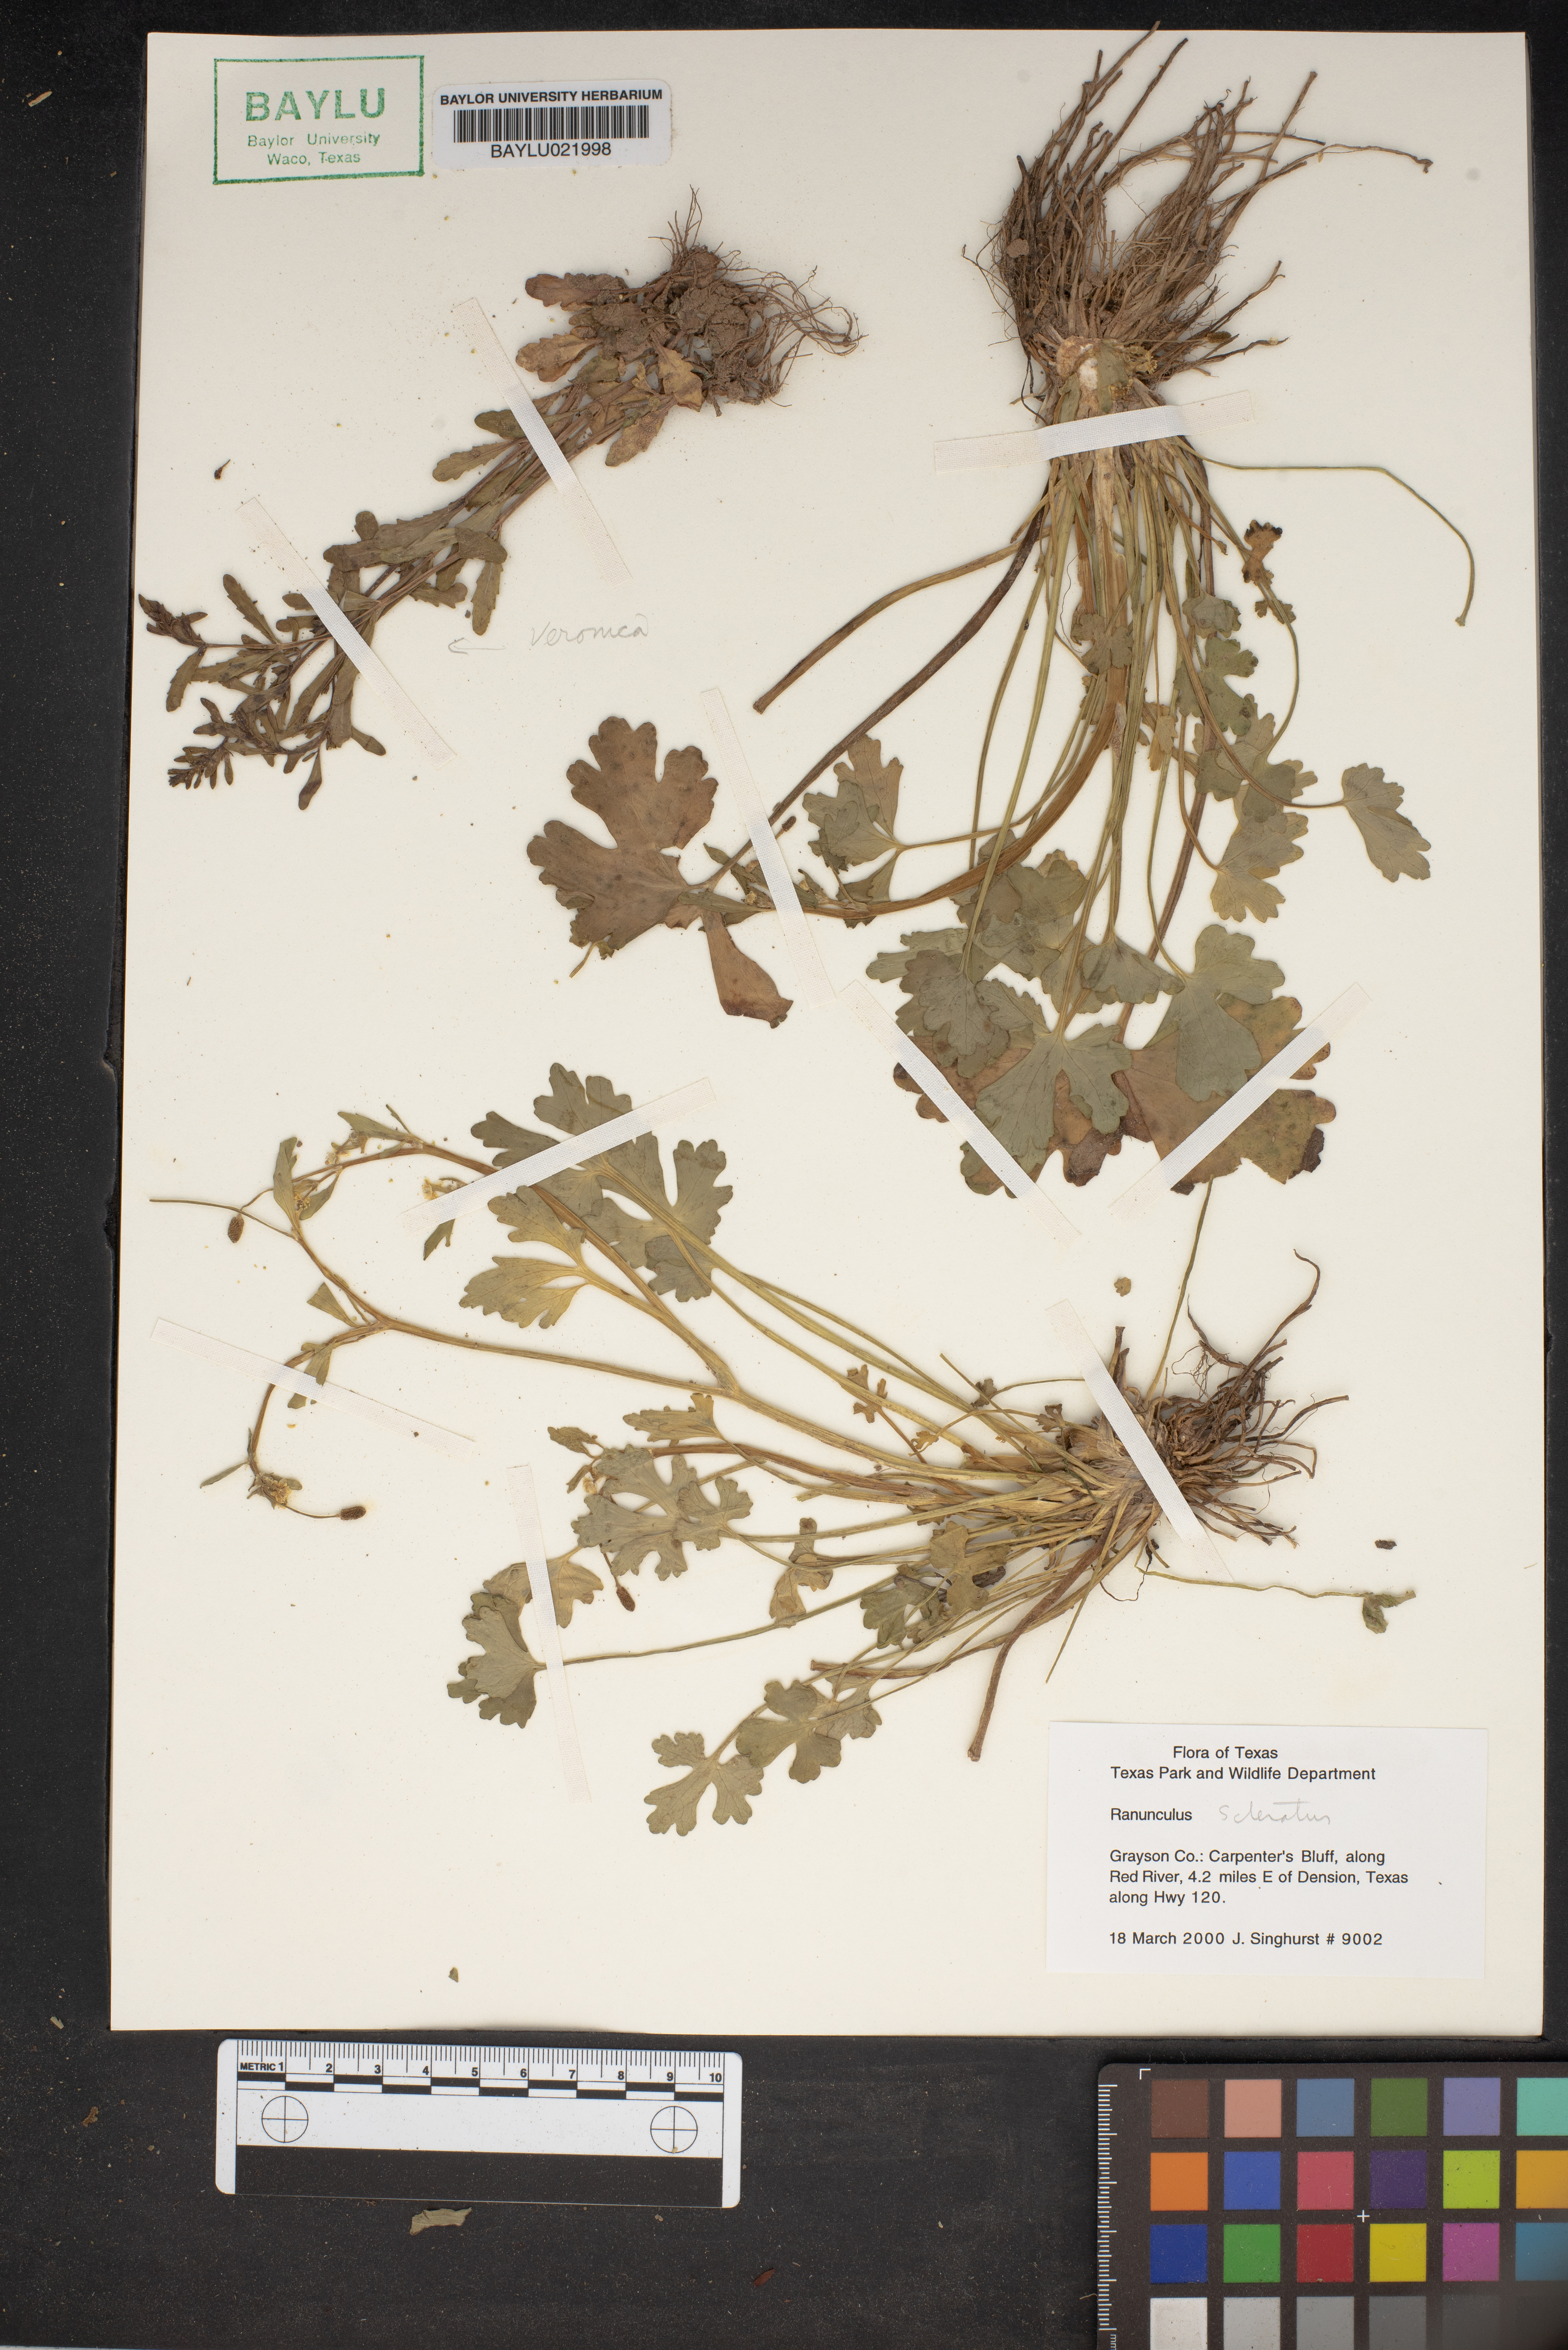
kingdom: Plantae
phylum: Tracheophyta
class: Magnoliopsida
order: Ranunculales
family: Ranunculaceae
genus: Ranunculus
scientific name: Ranunculus sceleratus
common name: Celery-leaved buttercup
